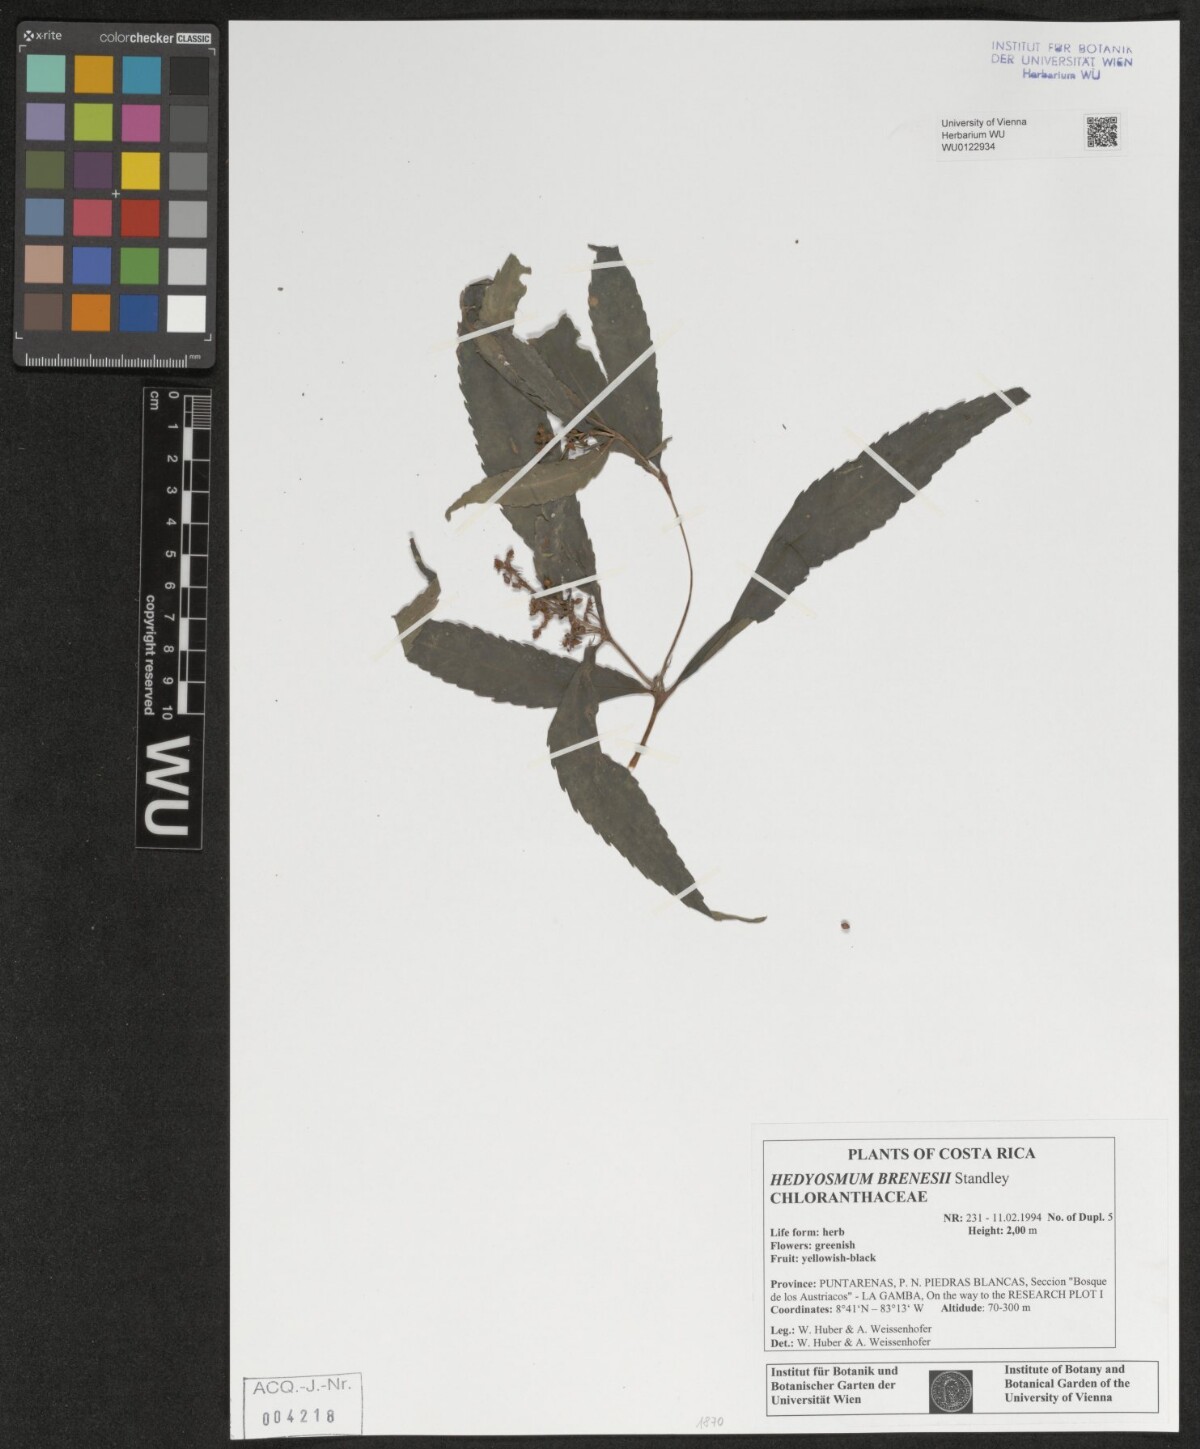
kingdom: Plantae
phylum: Tracheophyta
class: Magnoliopsida
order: Chloranthales
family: Chloranthaceae
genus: Hedyosmum
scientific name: Hedyosmum brenesii
